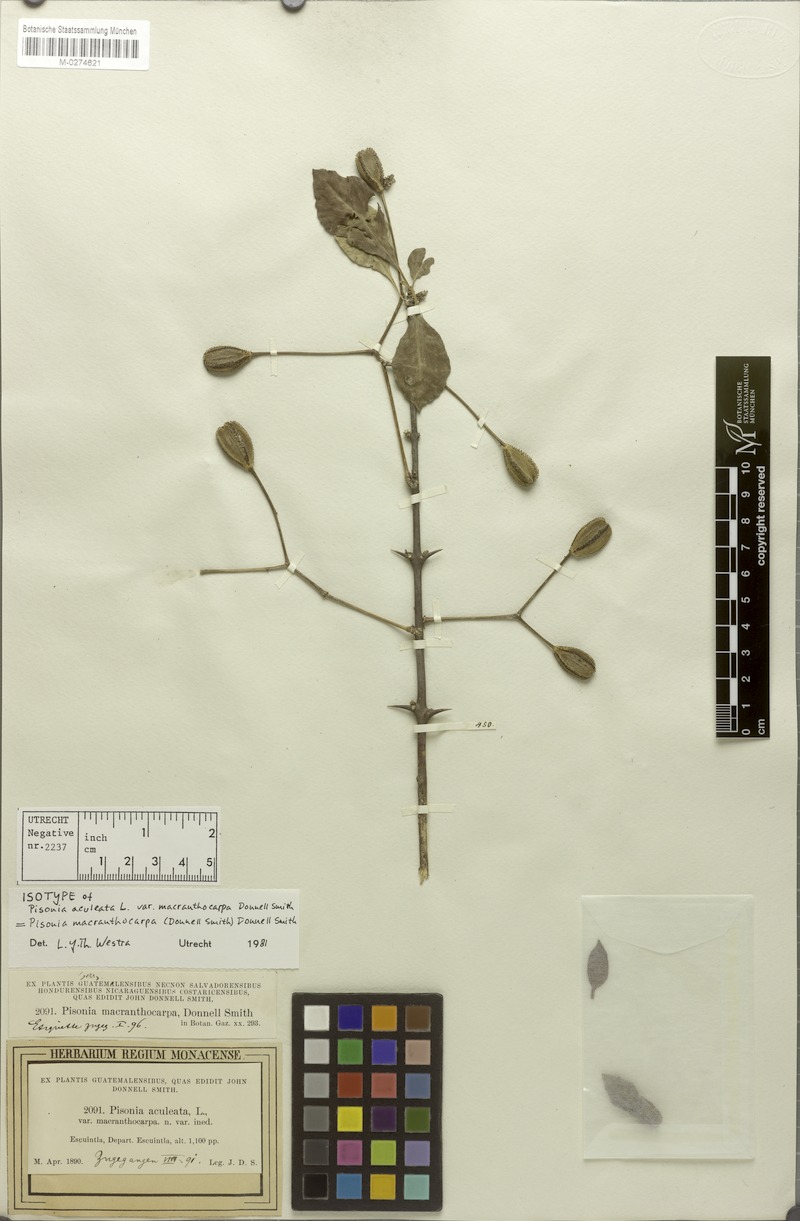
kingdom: Plantae
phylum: Tracheophyta
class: Magnoliopsida
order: Caryophyllales
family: Nyctaginaceae
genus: Pisonia
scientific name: Pisonia macranthocarpa
